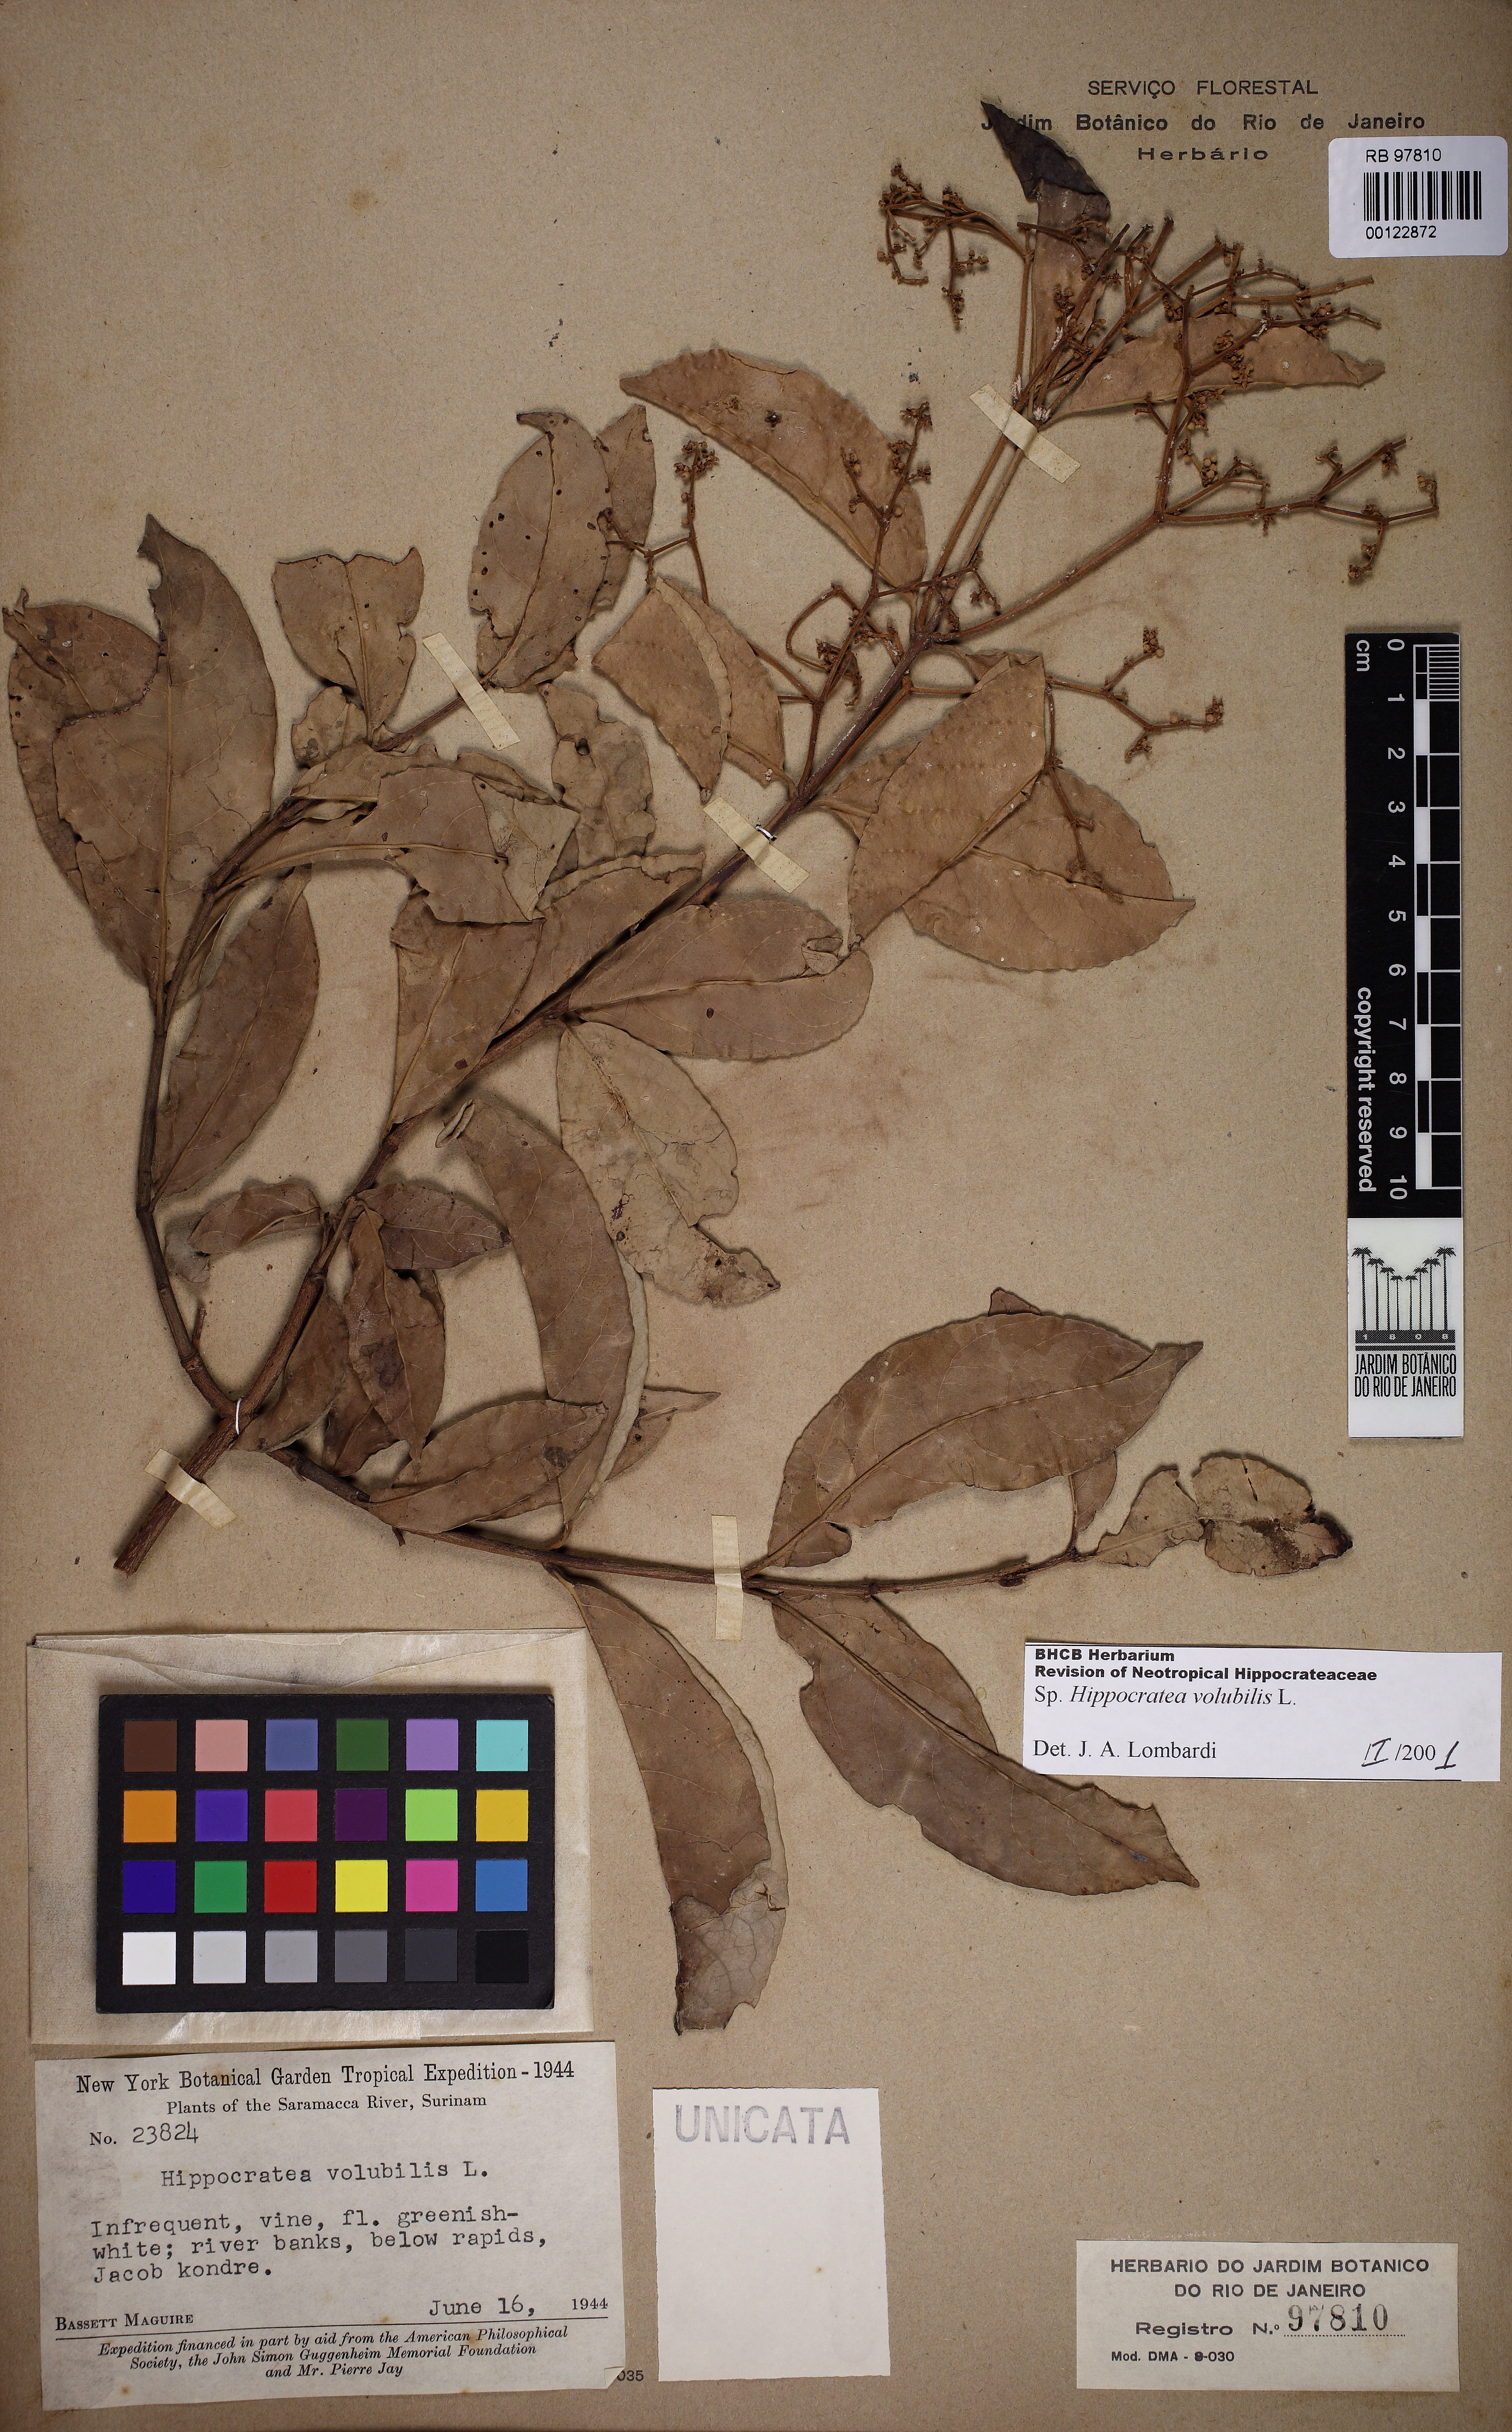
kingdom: Plantae
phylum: Tracheophyta
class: Magnoliopsida
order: Celastrales
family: Celastraceae
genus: Hippocratea
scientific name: Hippocratea volubilis
